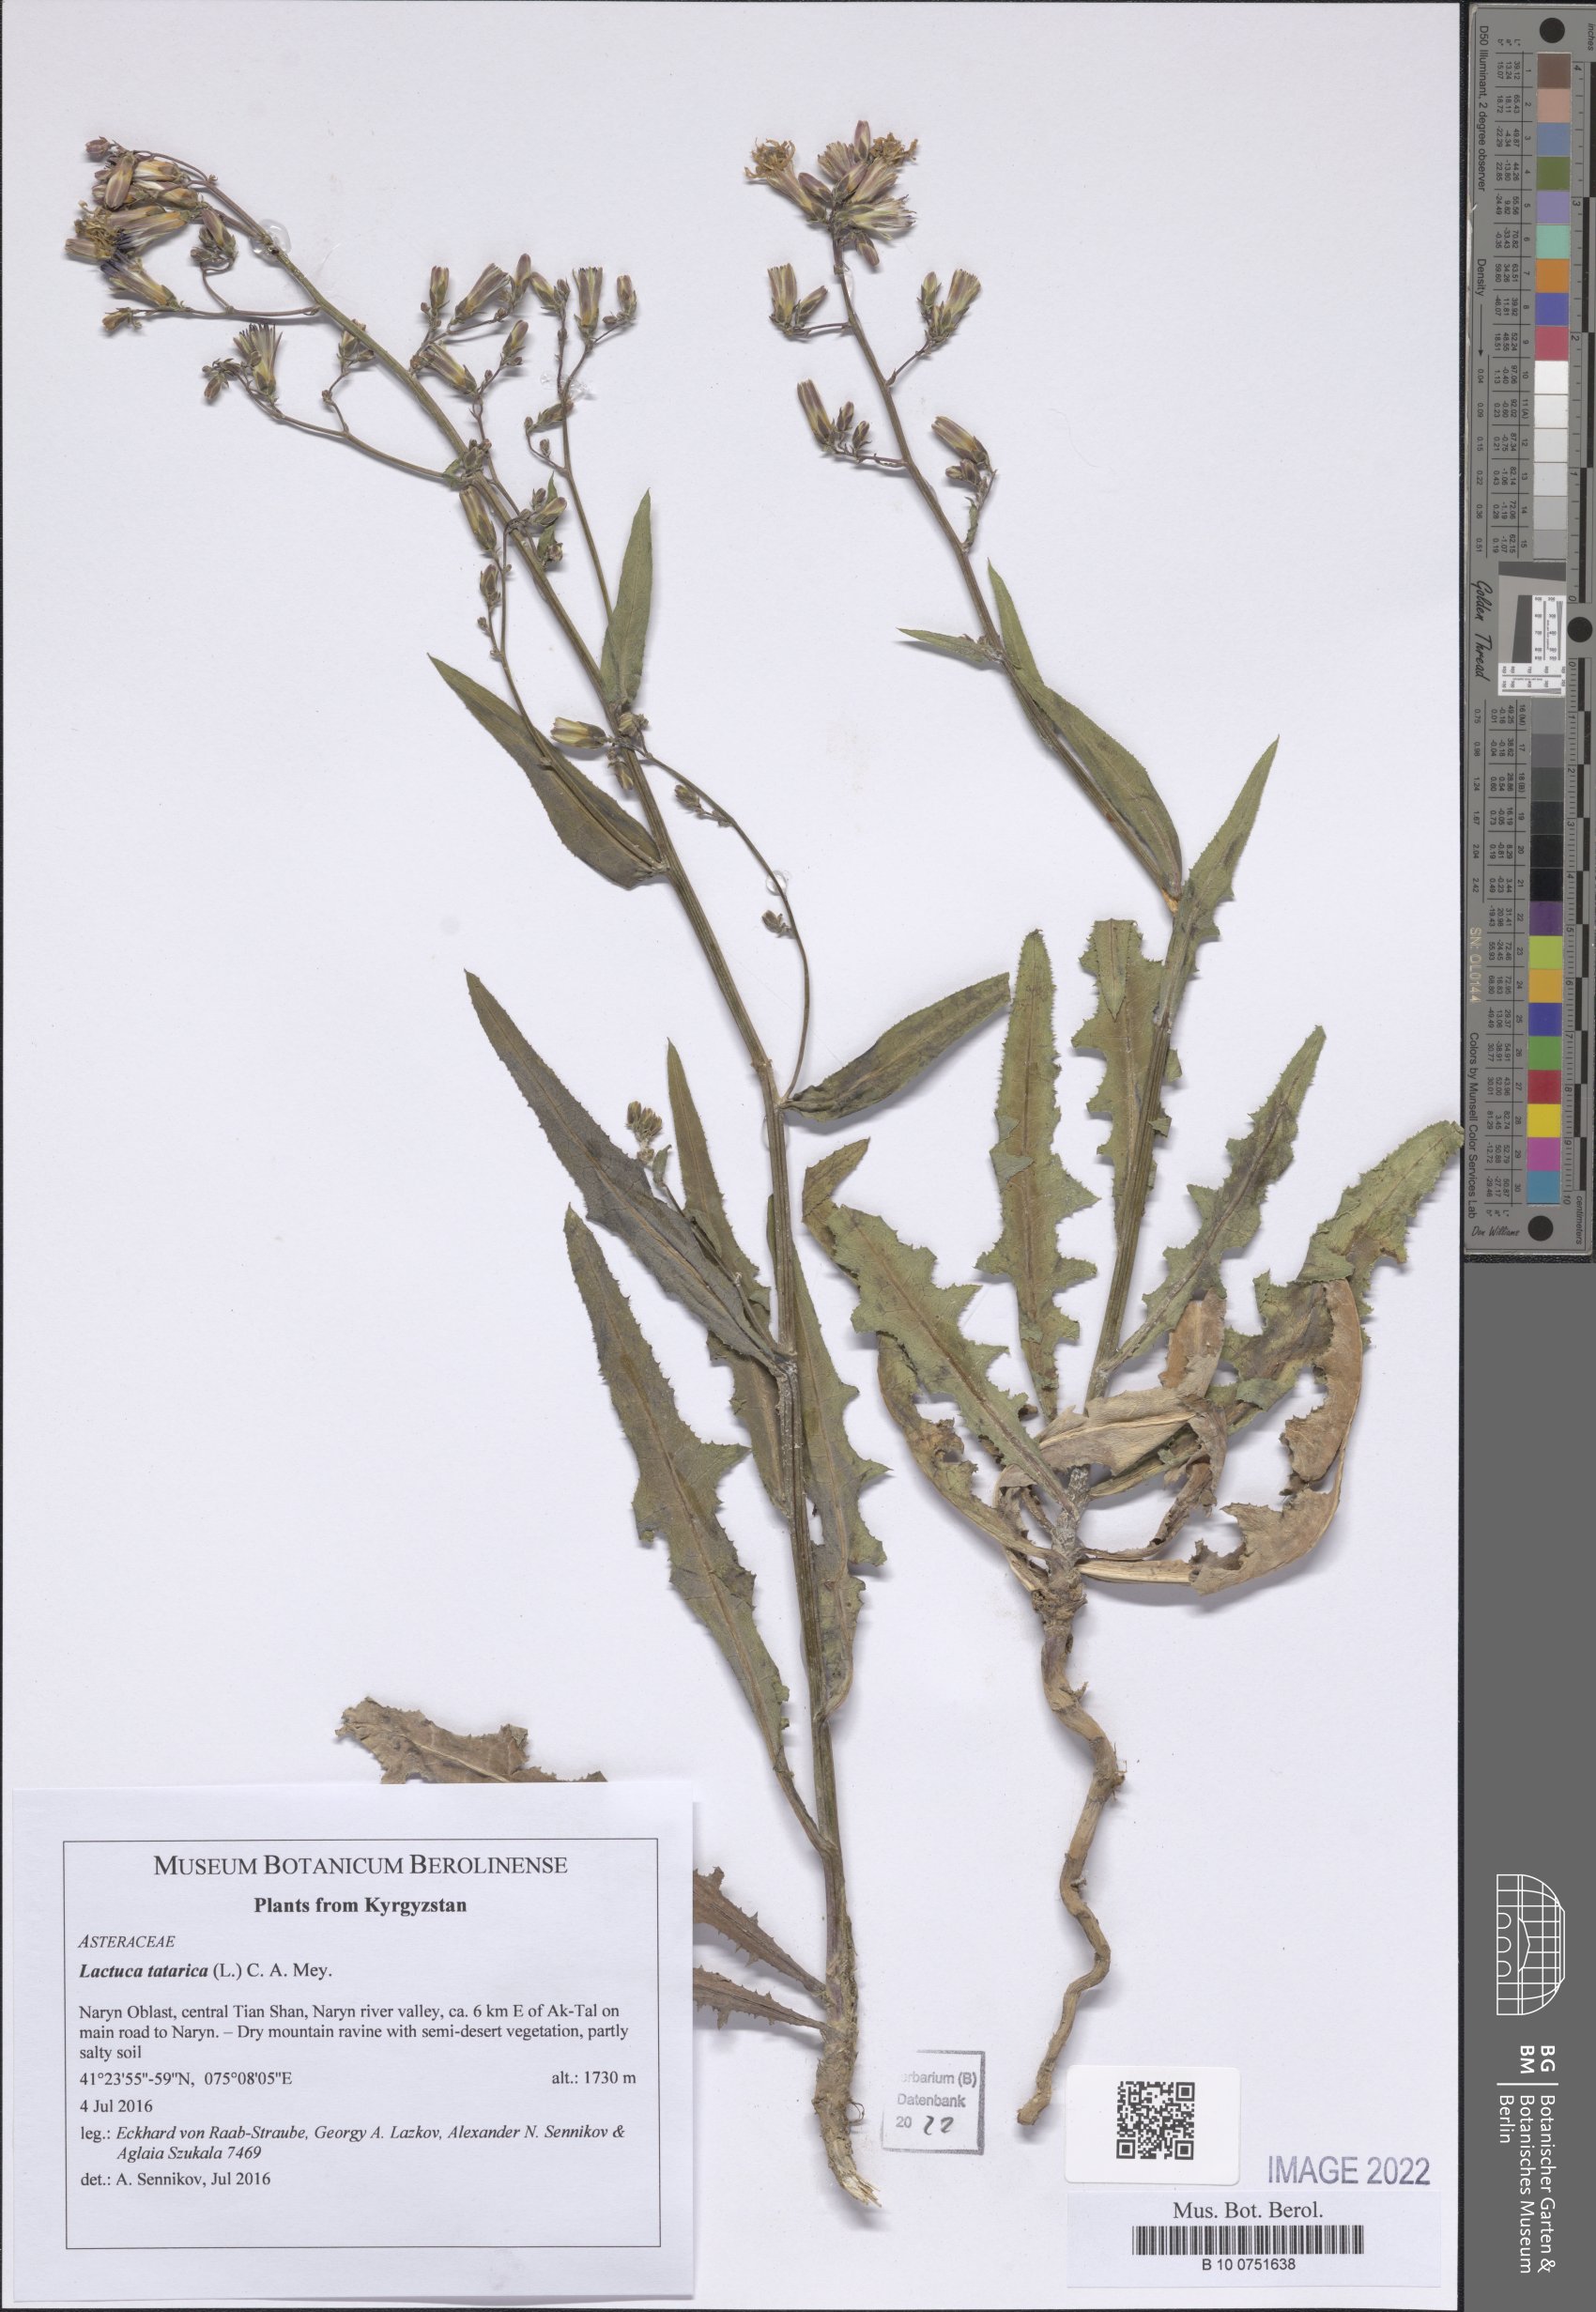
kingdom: Plantae
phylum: Tracheophyta
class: Magnoliopsida
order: Asterales
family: Asteraceae
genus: Lactuca
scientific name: Lactuca tatarica
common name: Blue lettuce
